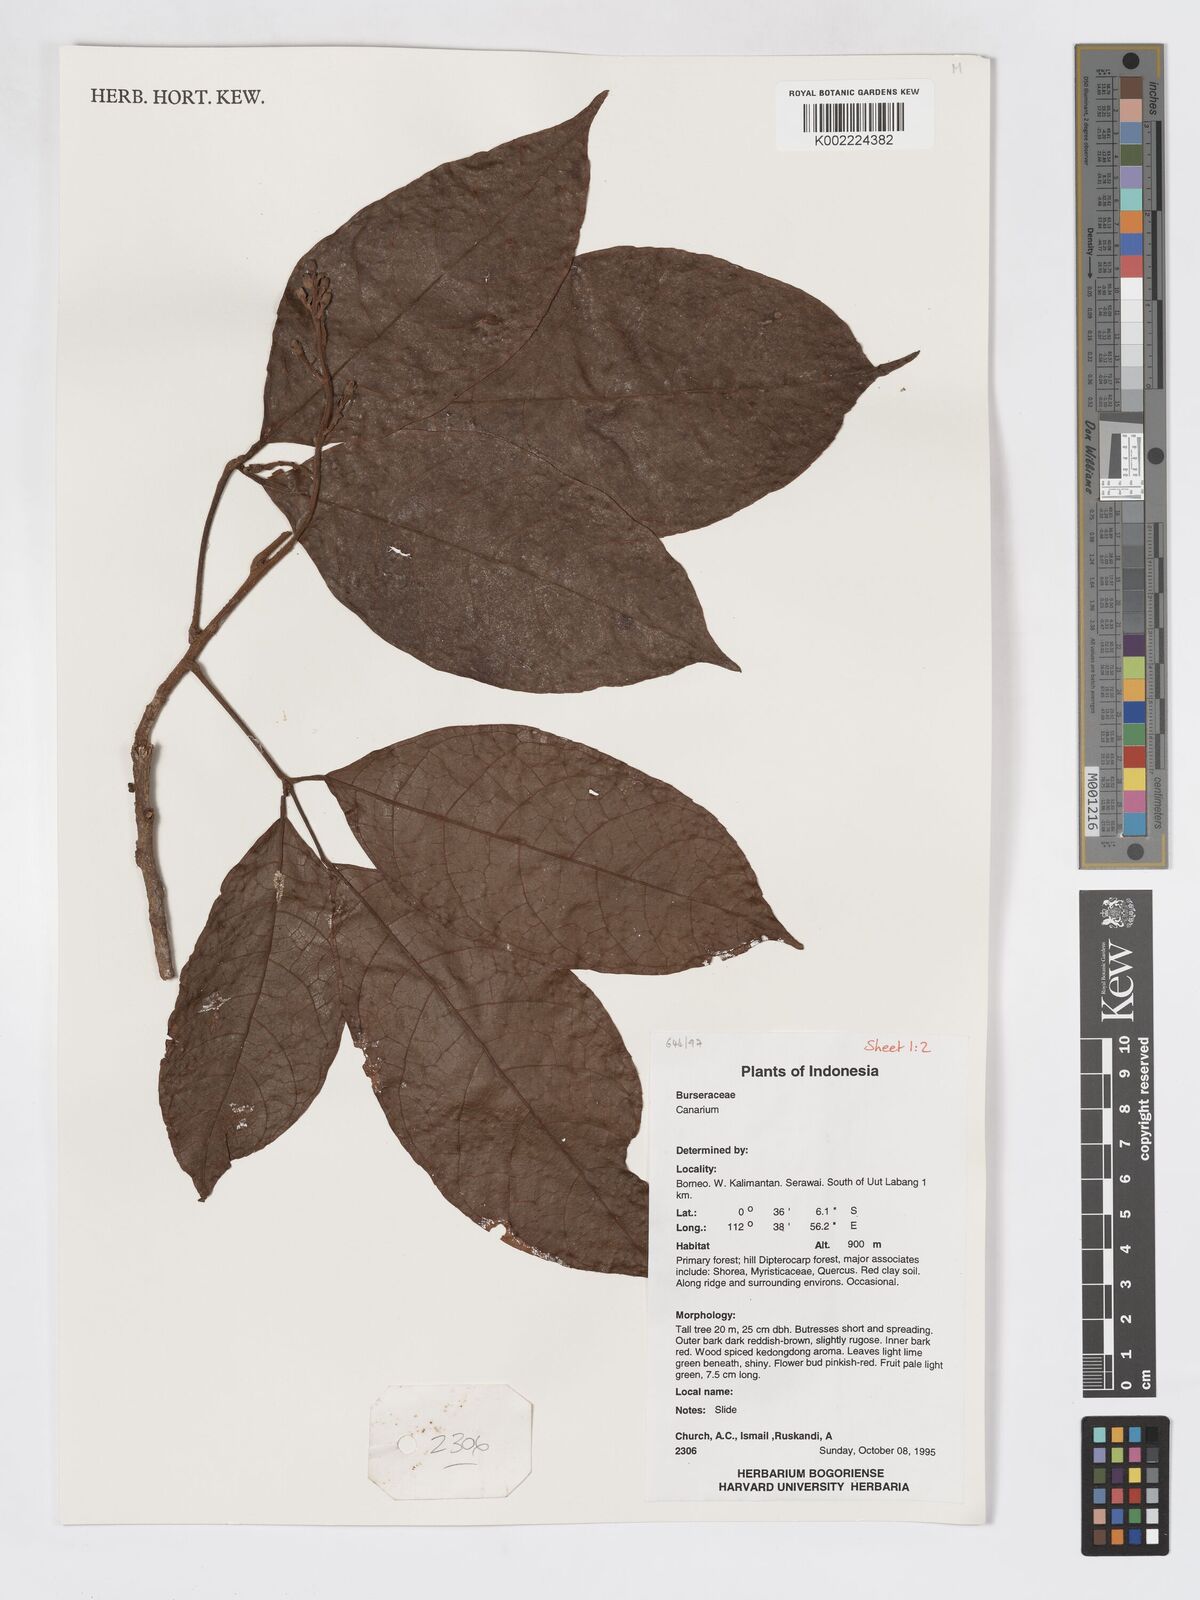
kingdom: Plantae
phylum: Tracheophyta
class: Magnoliopsida
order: Sapindales
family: Burseraceae
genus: Canarium
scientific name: Canarium
